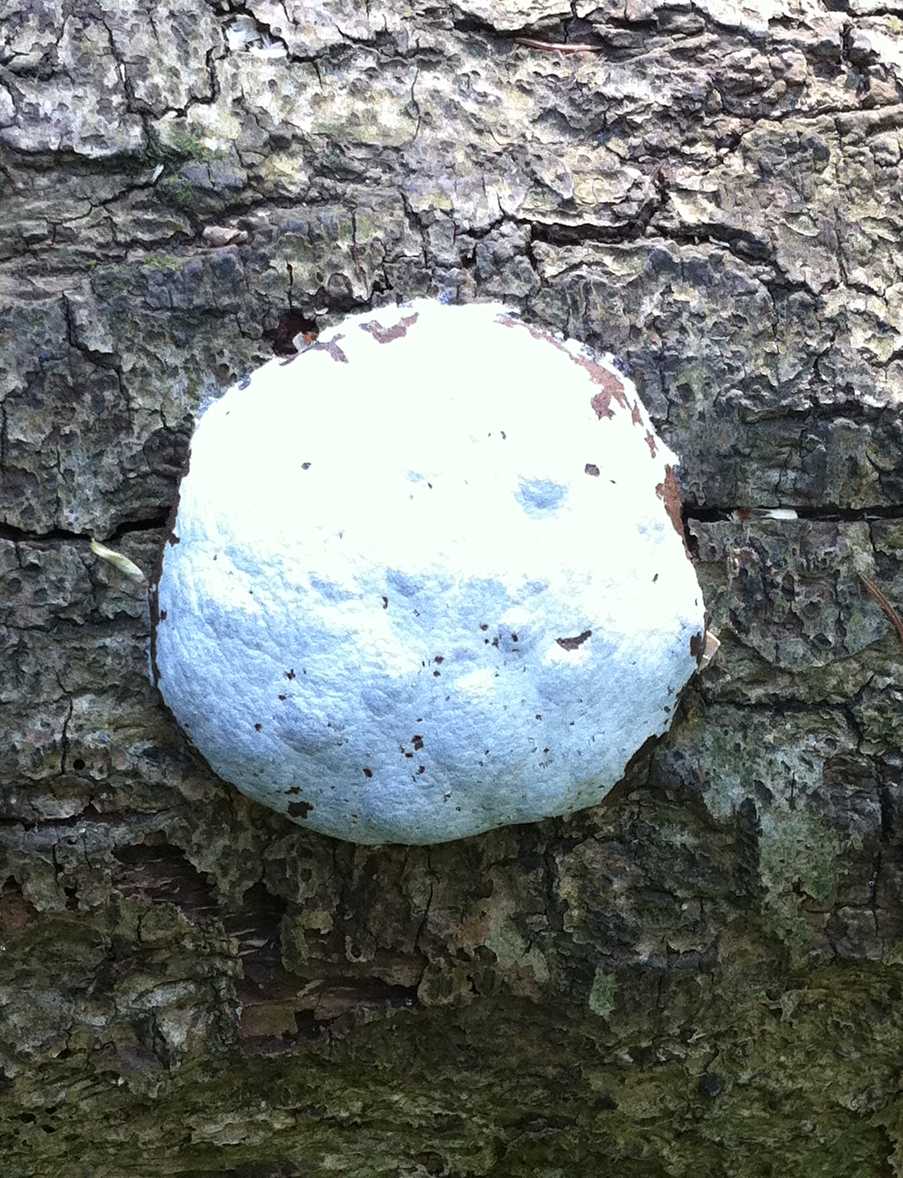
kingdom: Protozoa
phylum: Mycetozoa
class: Myxomycetes
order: Cribrariales
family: Tubiferaceae
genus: Reticularia
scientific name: Reticularia lycoperdon
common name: skinnende støvpude
